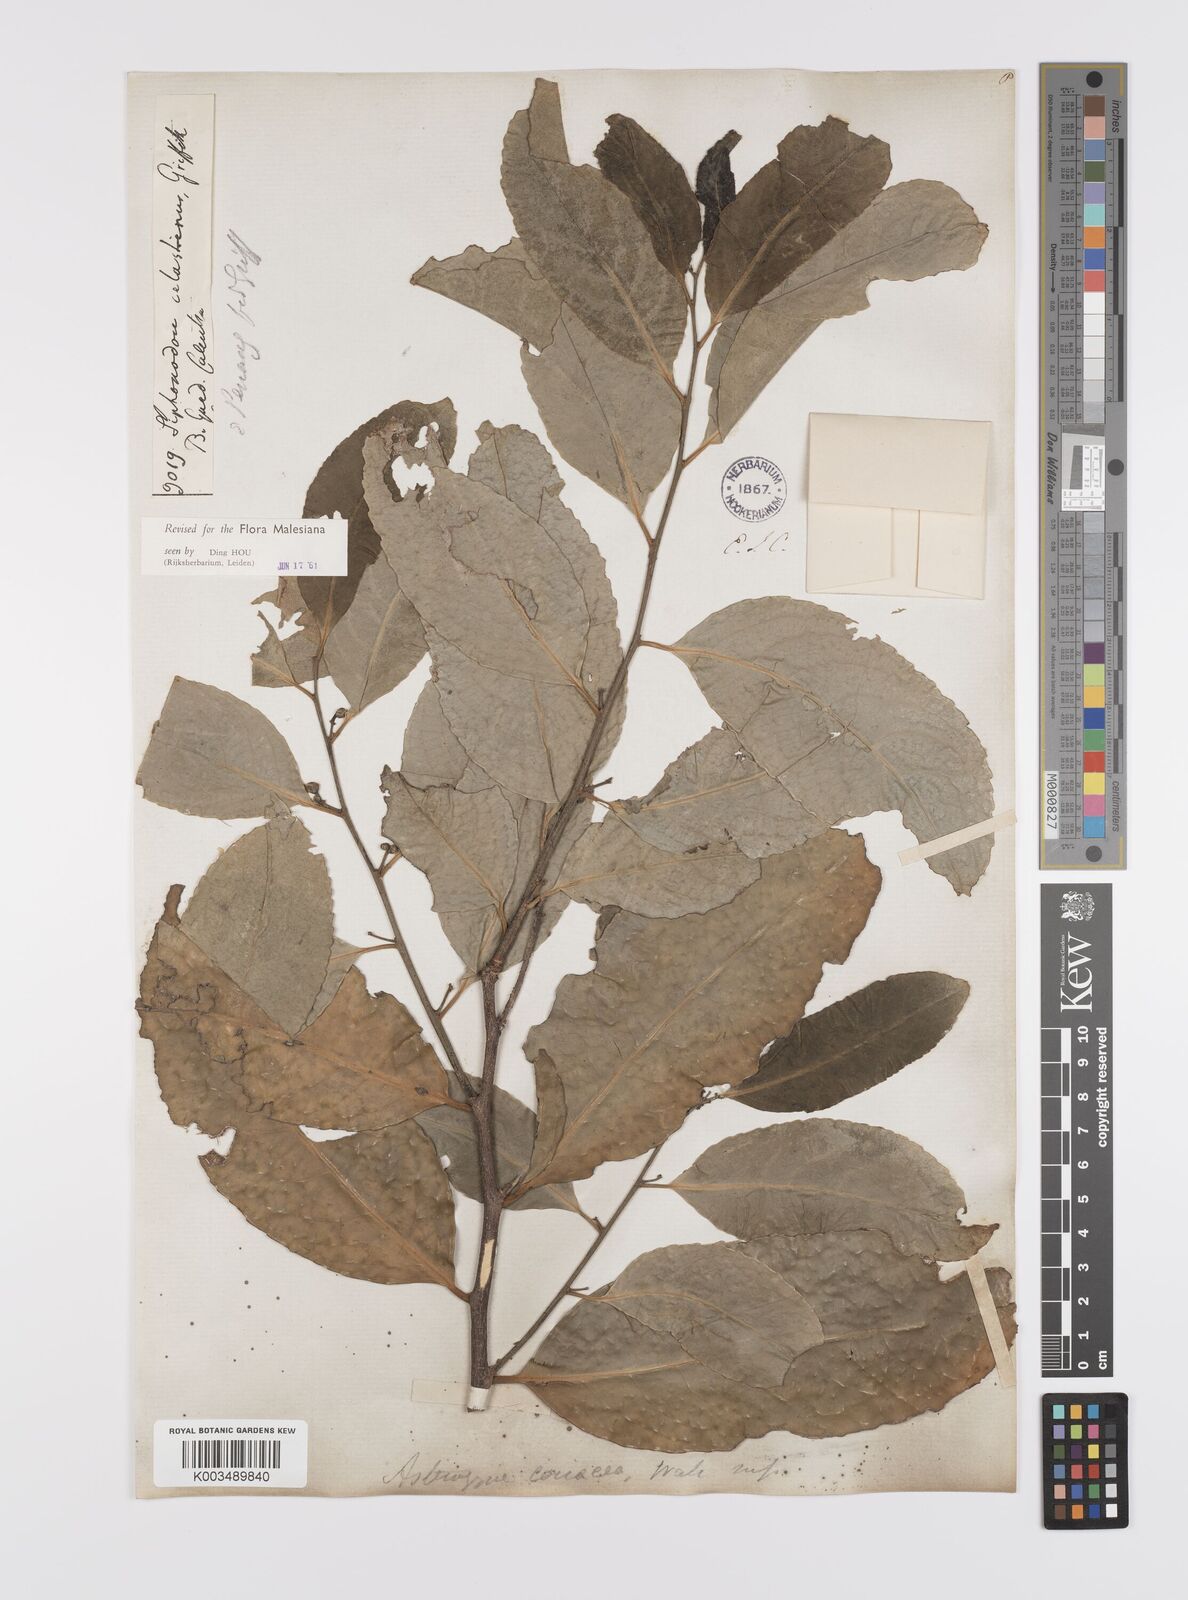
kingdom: Plantae
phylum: Tracheophyta
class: Magnoliopsida
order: Celastrales
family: Celastraceae
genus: Siphonodon
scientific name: Siphonodon celastrineus
